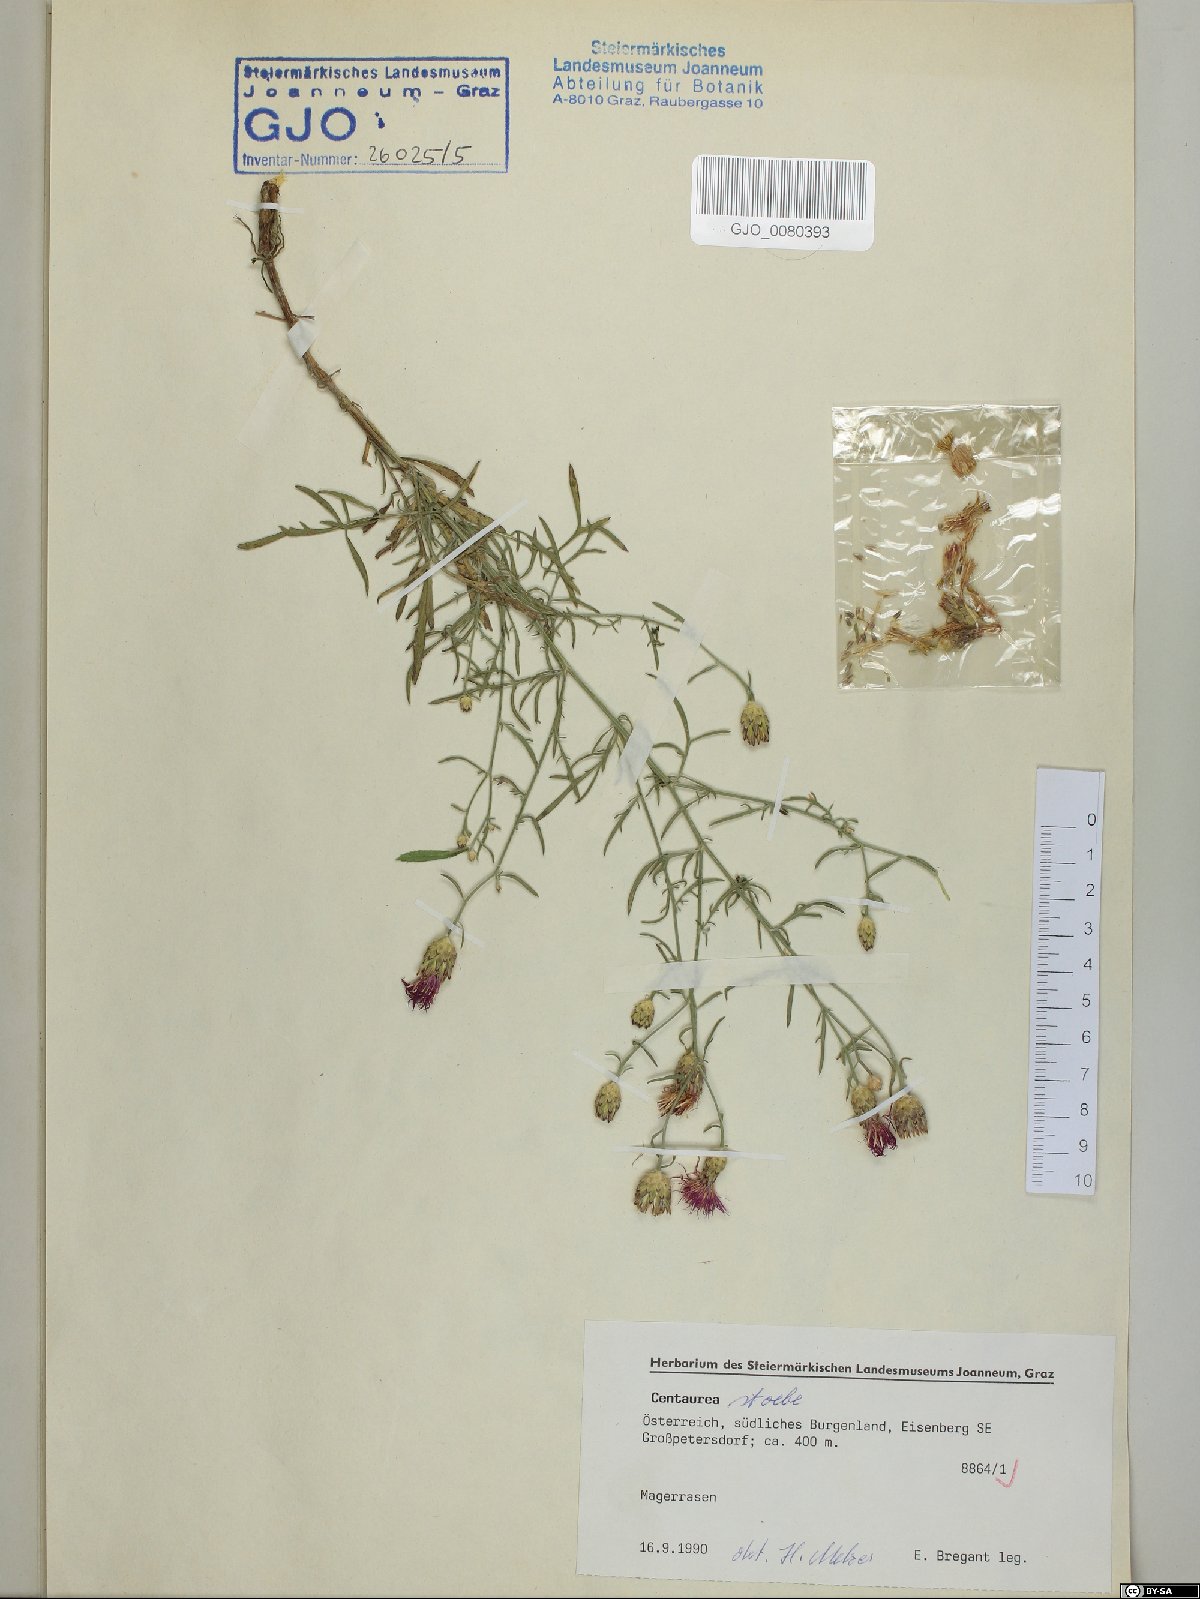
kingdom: Plantae
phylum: Tracheophyta
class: Magnoliopsida
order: Asterales
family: Asteraceae
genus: Centaurea
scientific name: Centaurea stoebe
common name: Spotted knapweed
